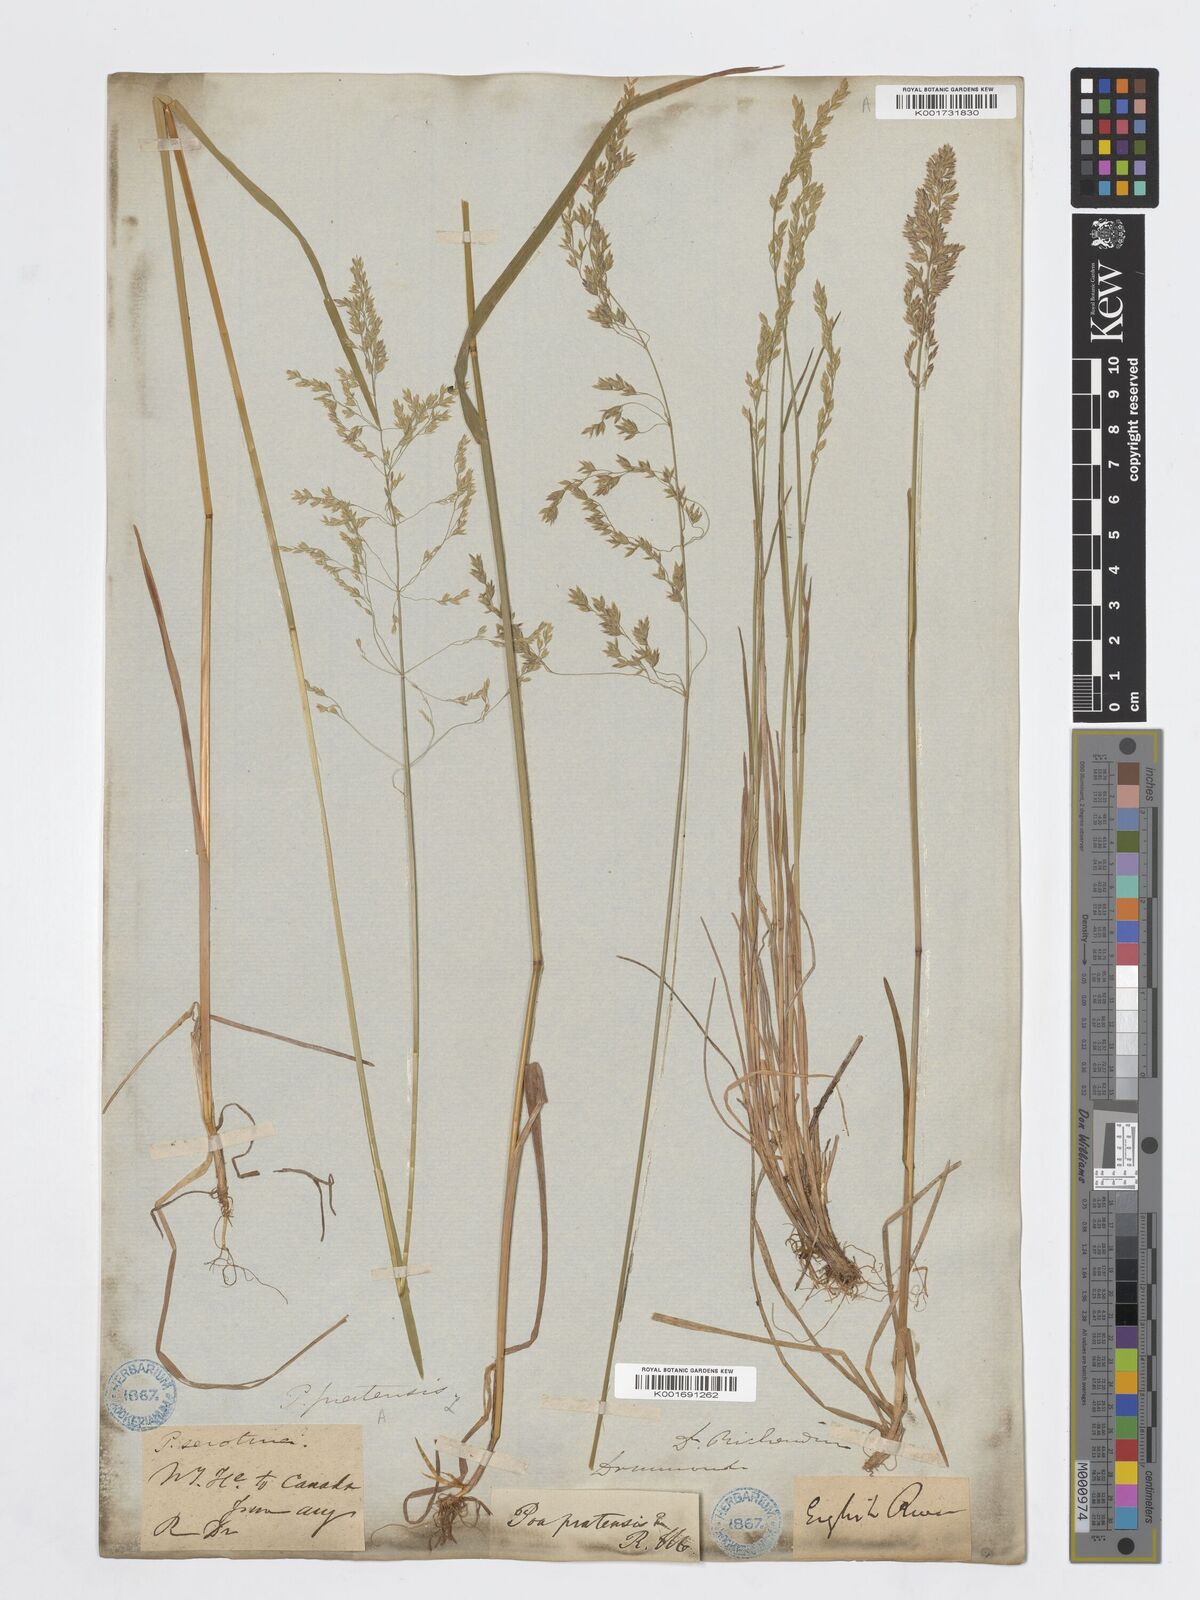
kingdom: Plantae
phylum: Tracheophyta
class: Liliopsida
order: Poales
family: Poaceae
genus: Poa
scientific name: Poa palustris
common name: Swamp meadow-grass
